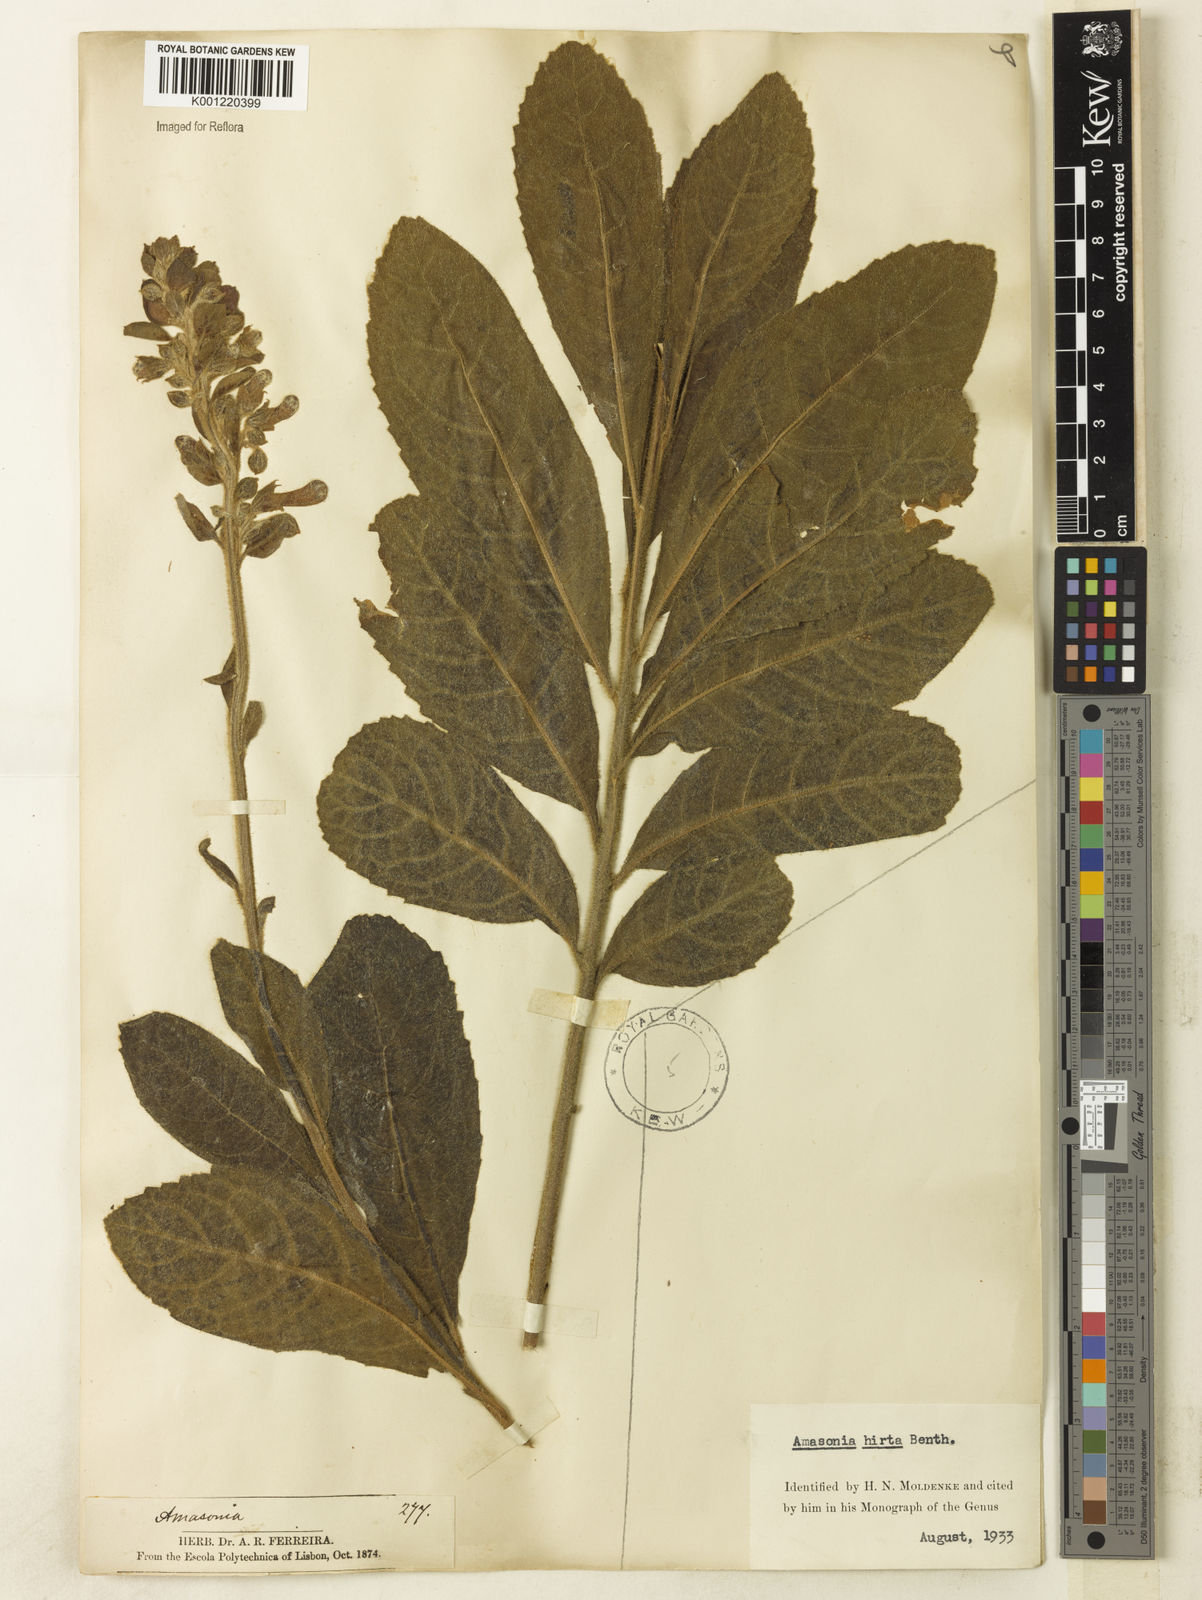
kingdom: Plantae
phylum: Tracheophyta
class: Magnoliopsida
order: Lamiales
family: Lamiaceae
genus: Amasonia
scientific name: Amasonia hirta
